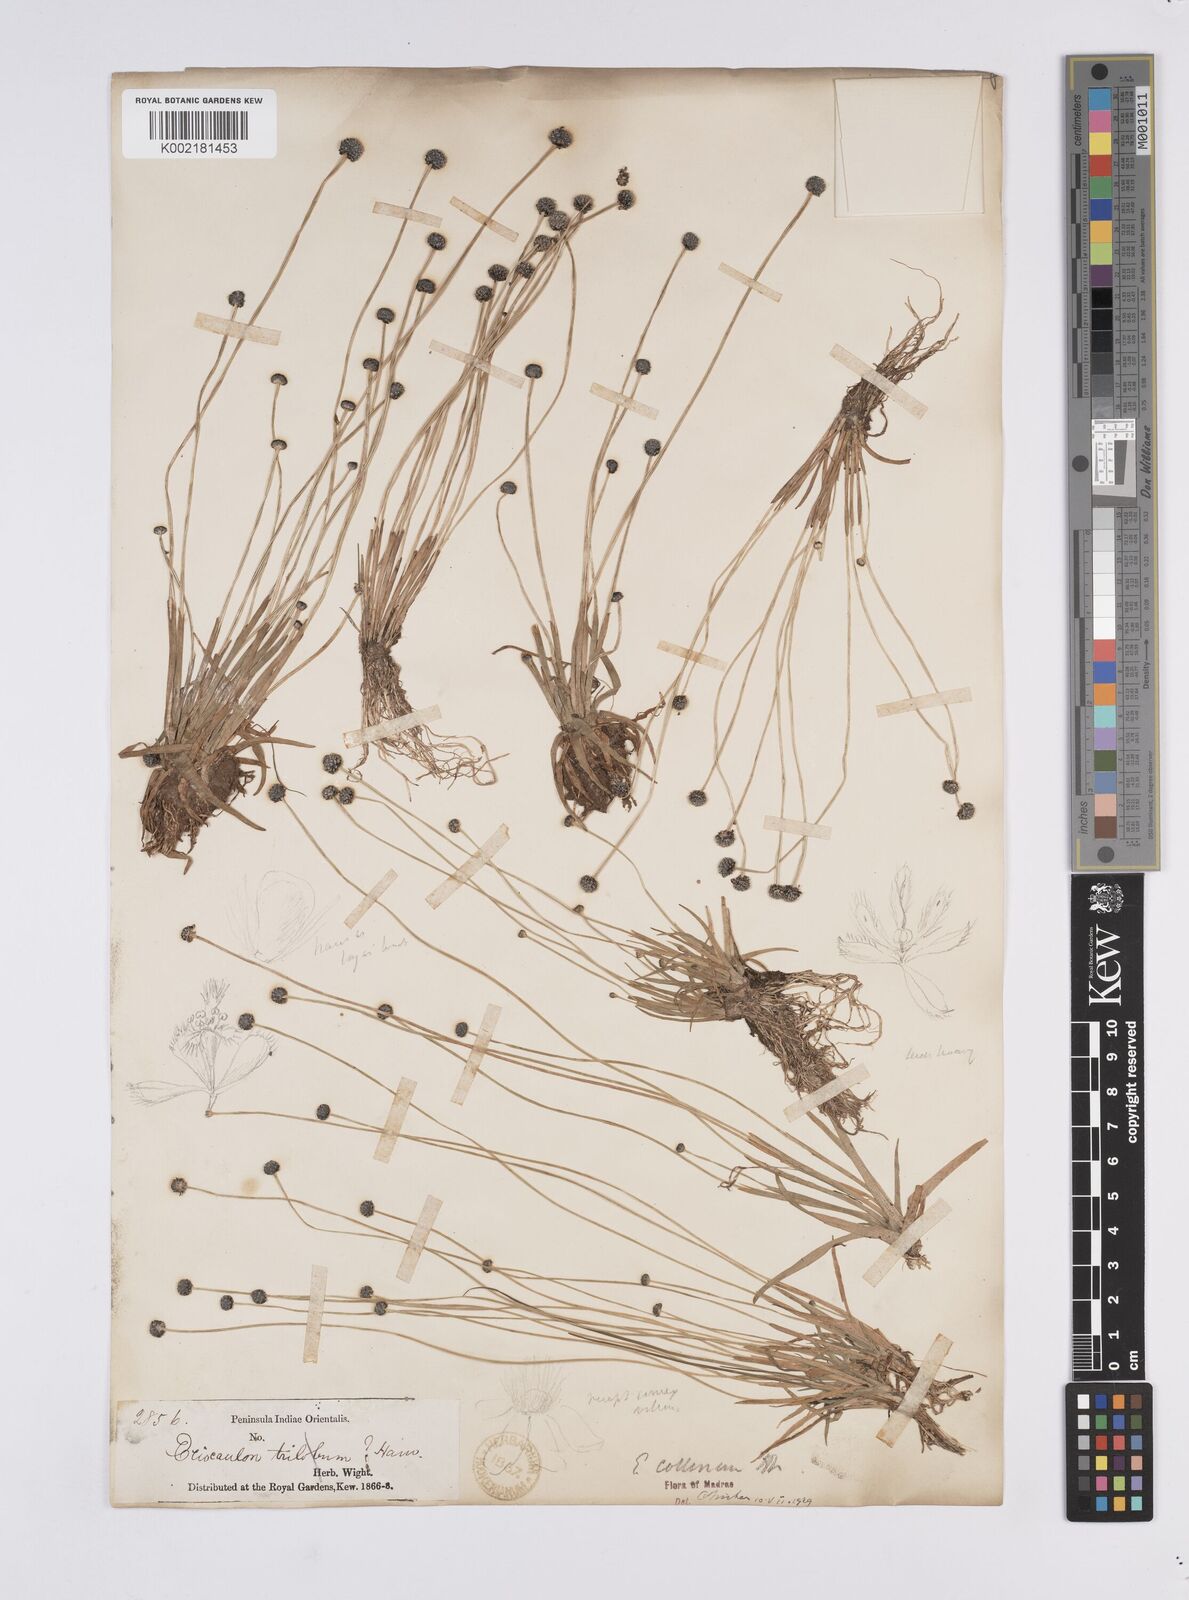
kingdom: Plantae
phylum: Tracheophyta
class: Liliopsida
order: Poales
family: Eriocaulaceae
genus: Eriocaulon
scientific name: Eriocaulon odoratum
